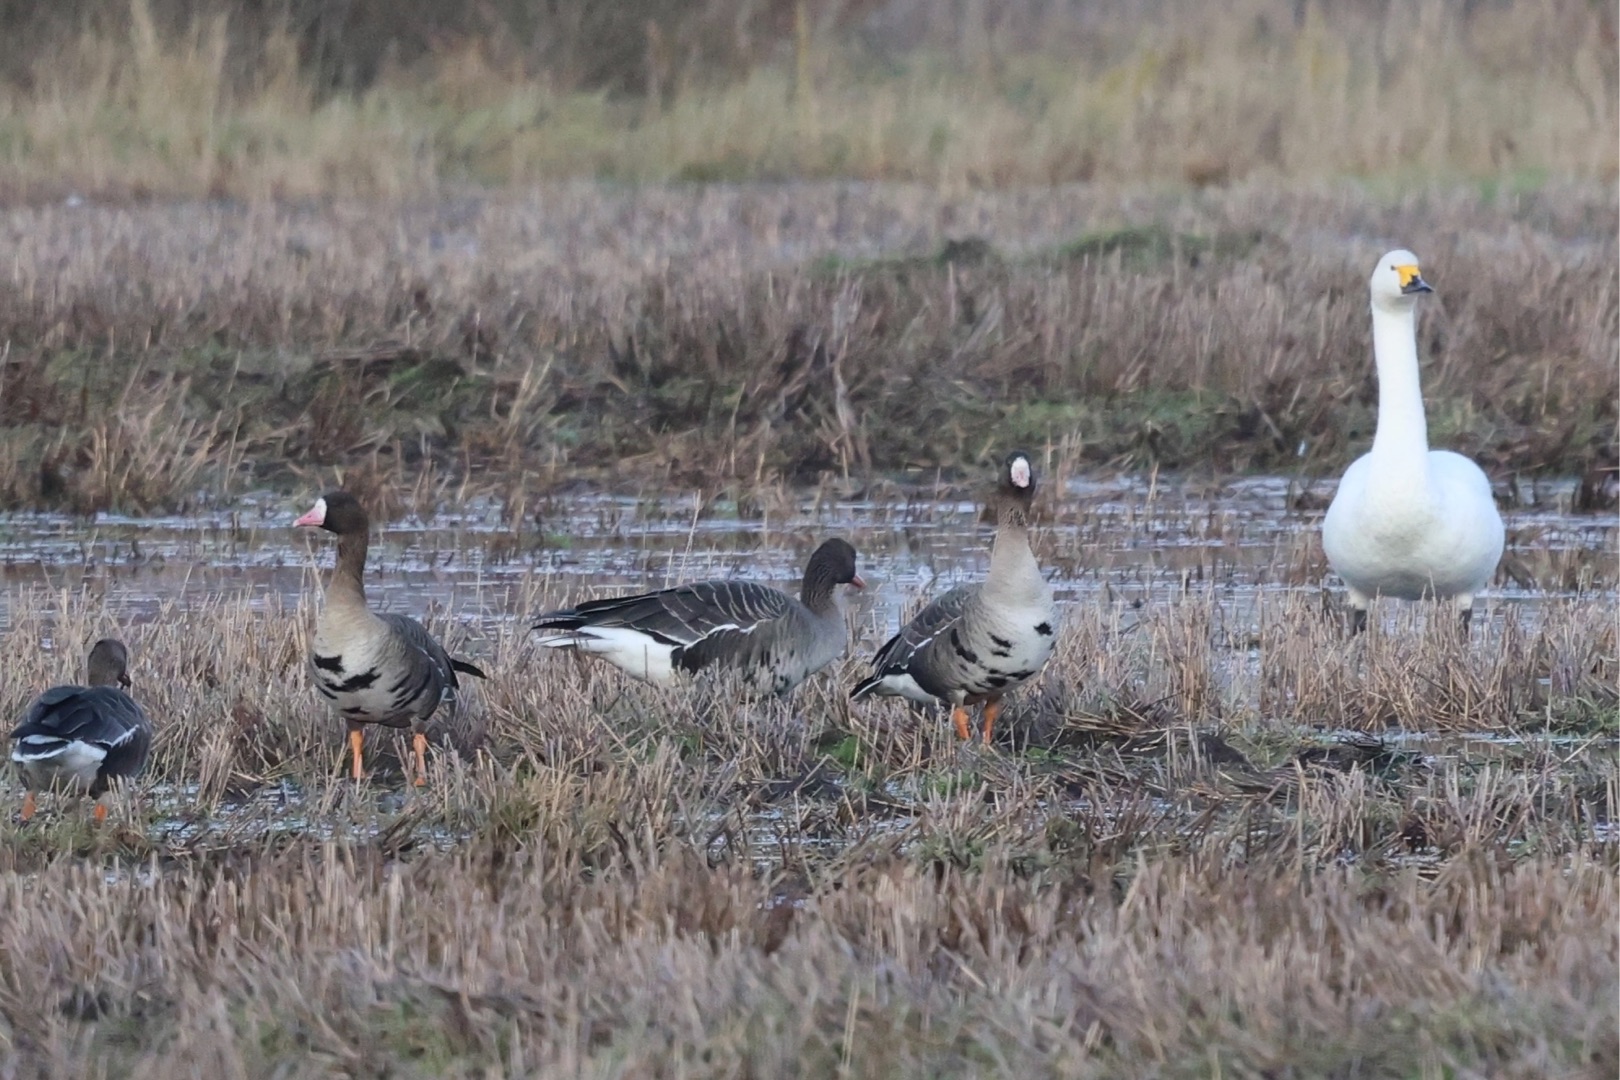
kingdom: Animalia
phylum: Chordata
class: Aves
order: Anseriformes
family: Anatidae
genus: Anser
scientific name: Anser albifrons
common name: Blisgås
